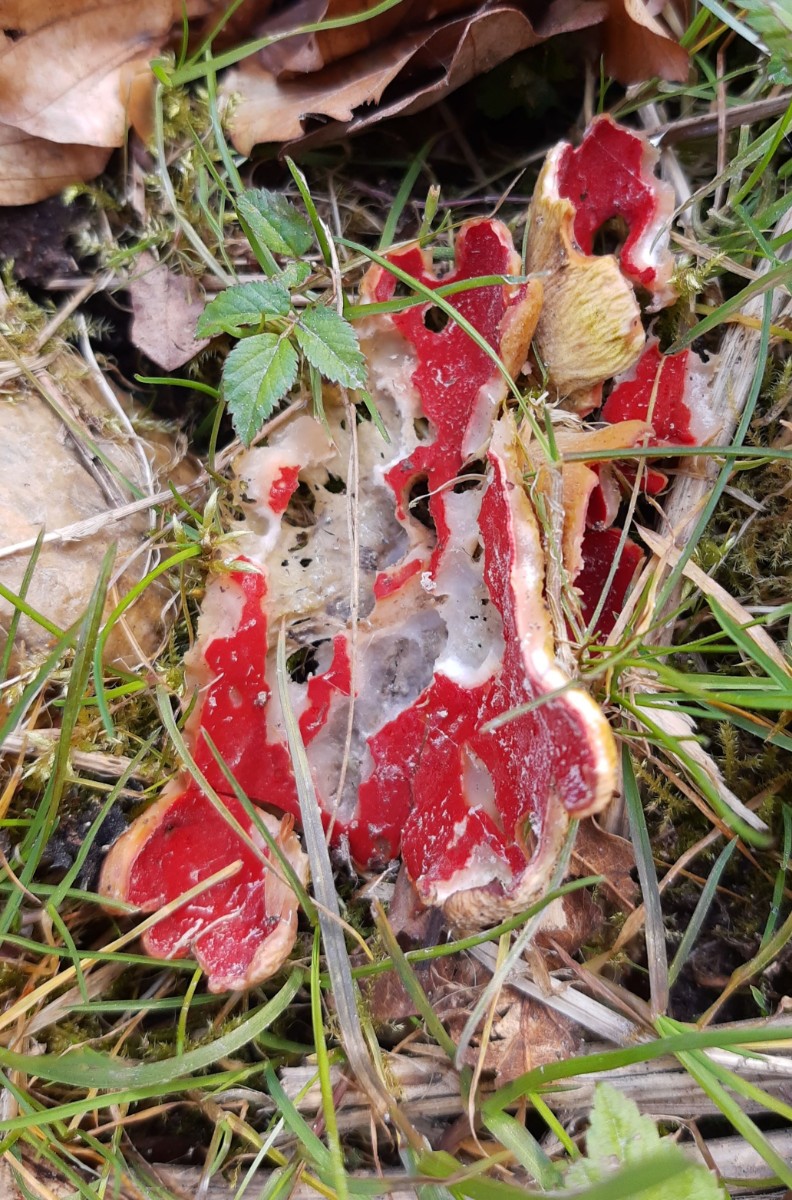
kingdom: Fungi
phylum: Ascomycota
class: Pezizomycetes
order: Pezizales
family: Sarcoscyphaceae
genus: Sarcoscypha
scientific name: Sarcoscypha austriaca
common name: krølhåret pragtbæger
